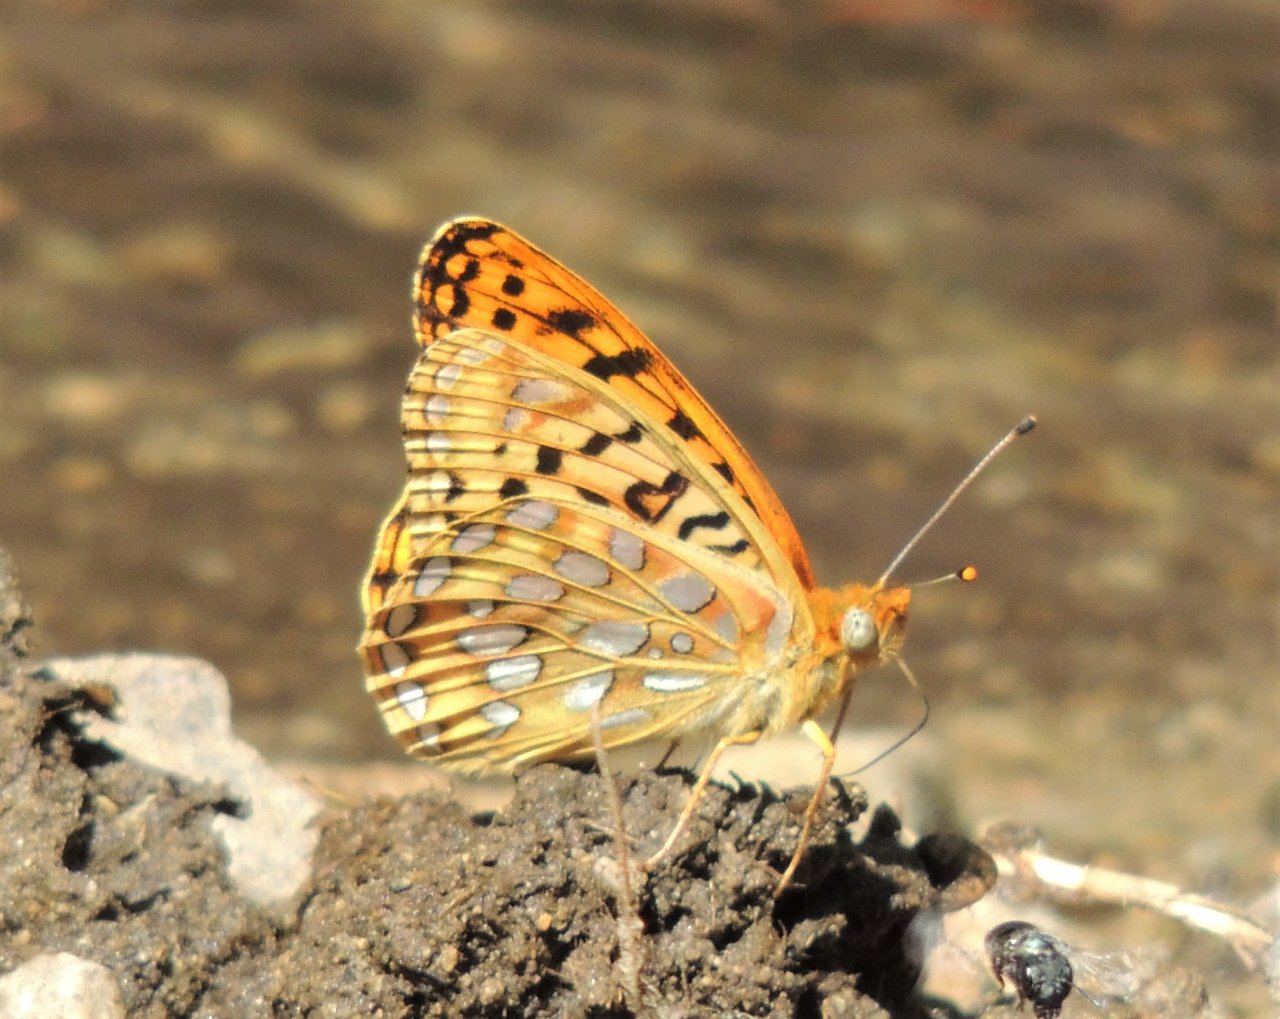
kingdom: Animalia
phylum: Arthropoda
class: Insecta
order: Lepidoptera
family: Nymphalidae
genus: Speyeria
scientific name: Speyeria zerene
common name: Zerene Fritillary
